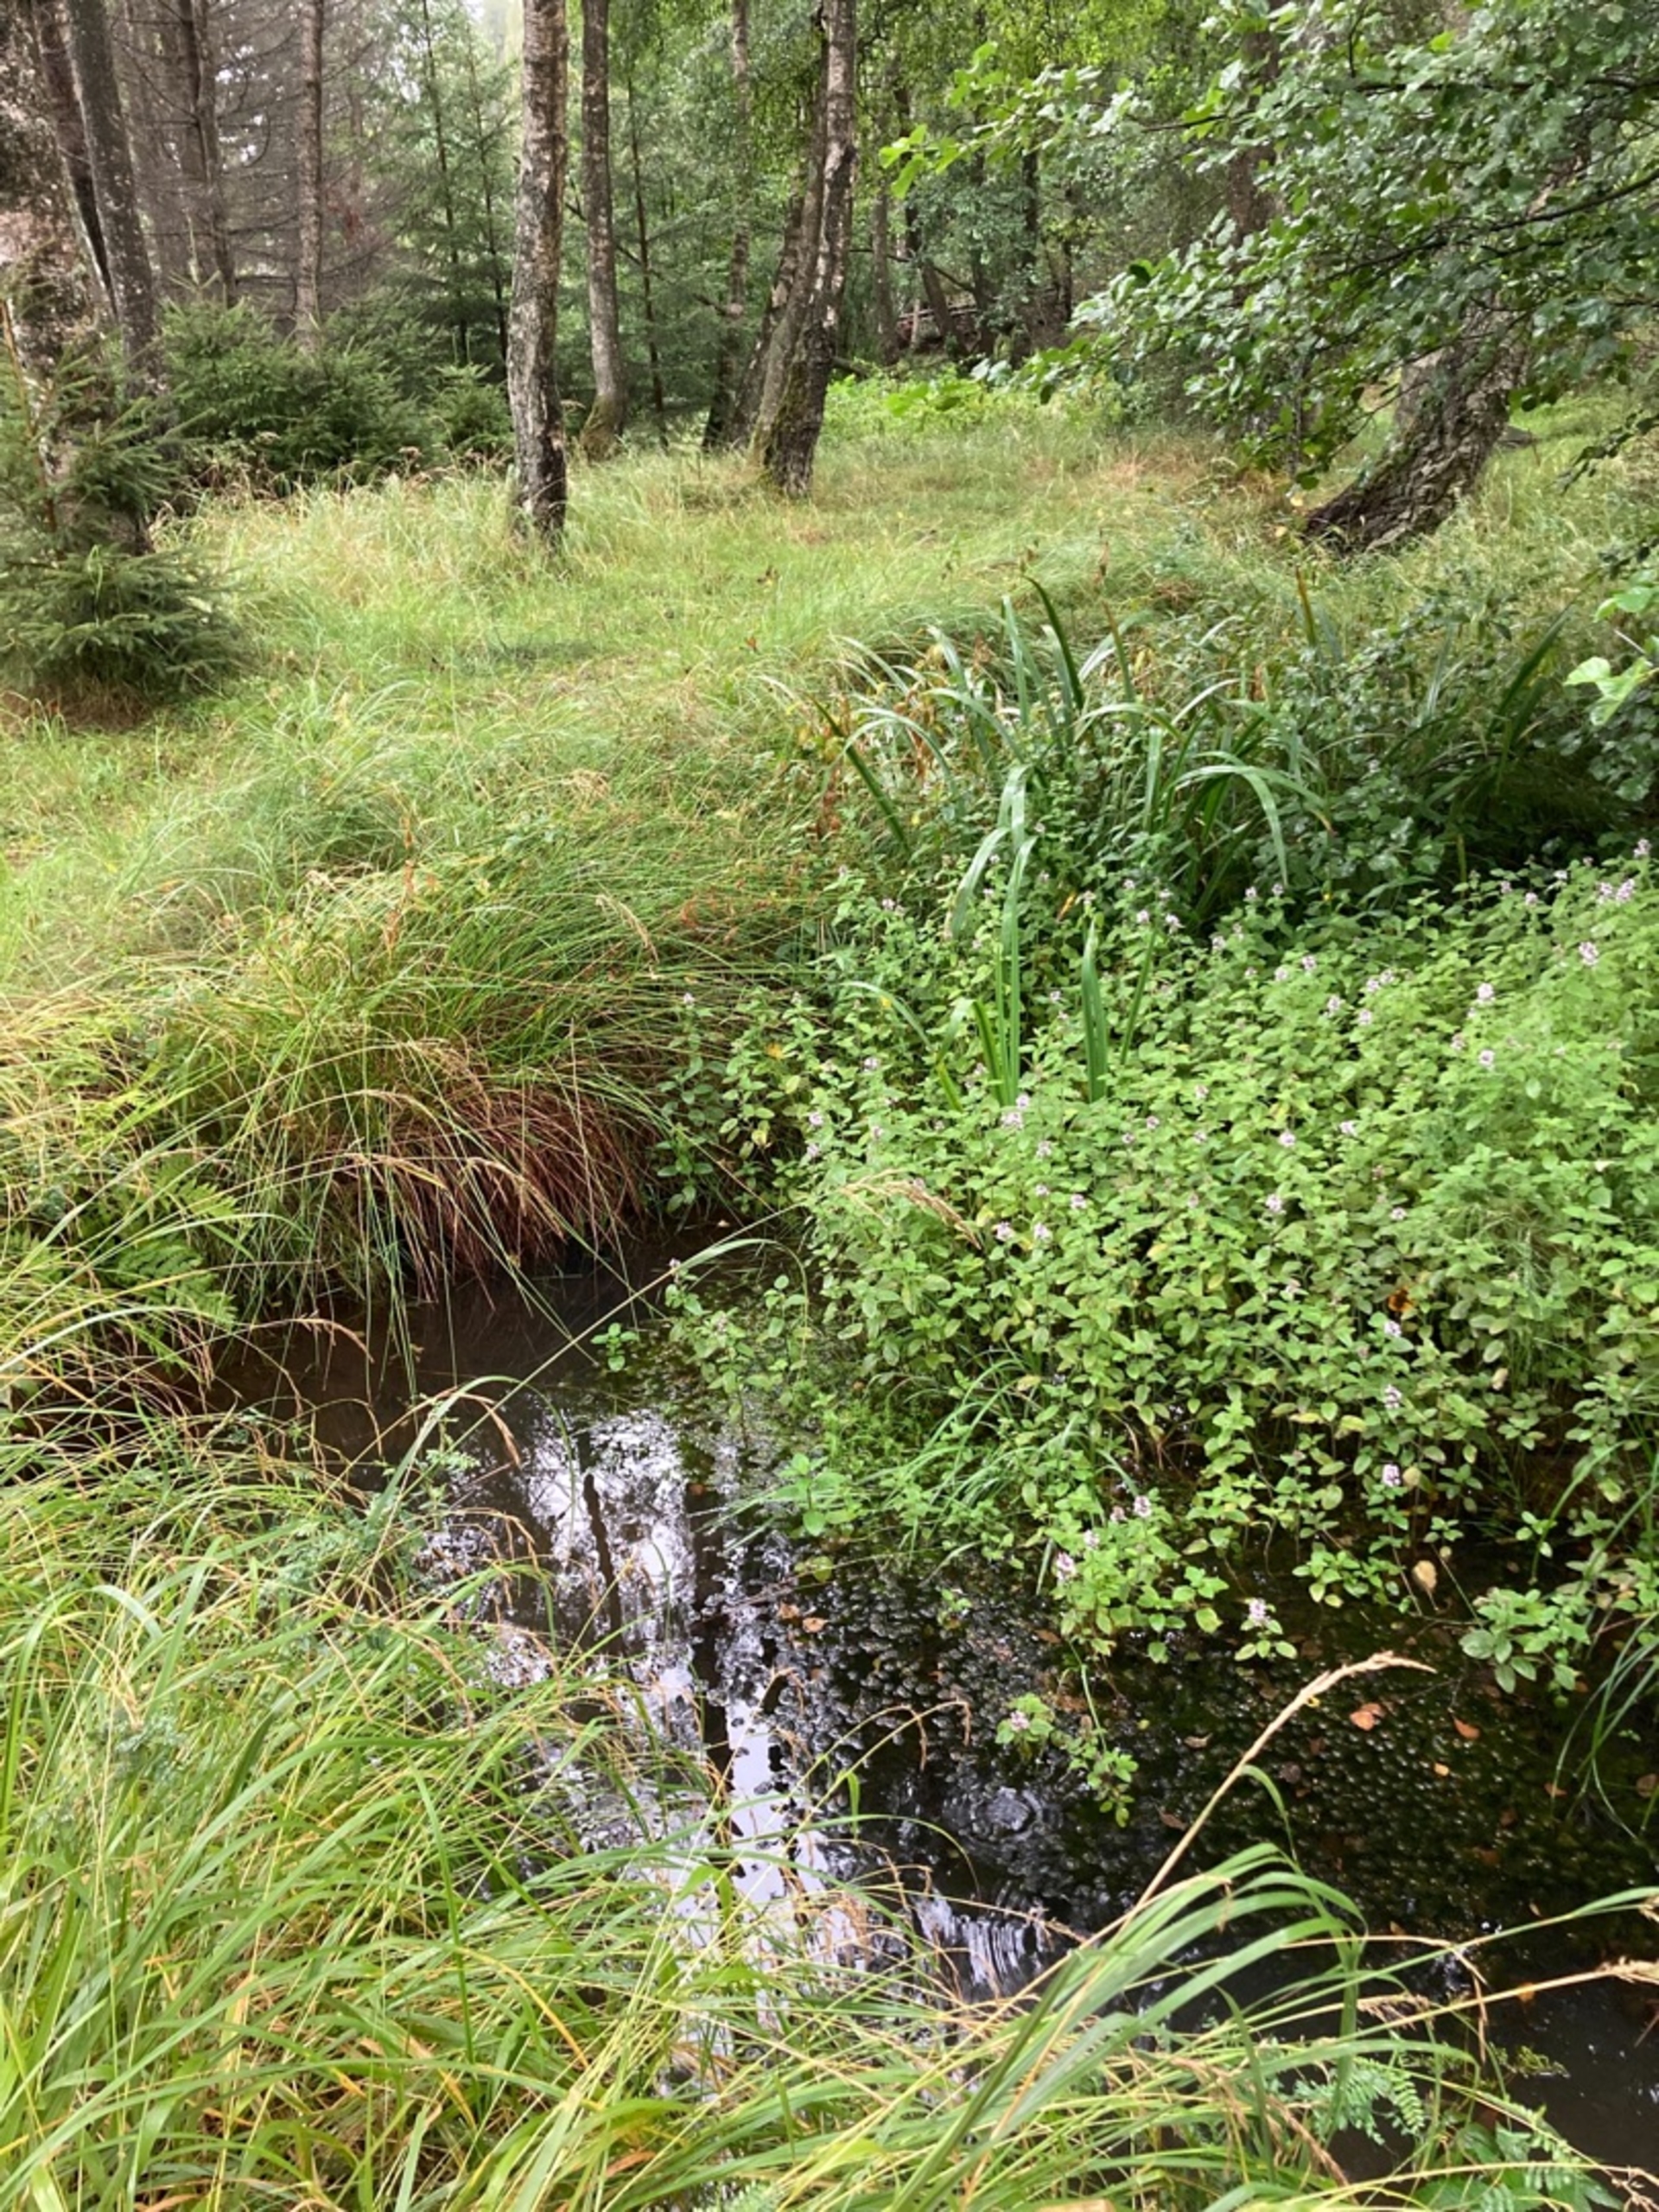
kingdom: Plantae
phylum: Tracheophyta
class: Magnoliopsida
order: Lamiales
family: Lamiaceae
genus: Mentha
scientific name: Mentha aquatica
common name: Vand-mynte
